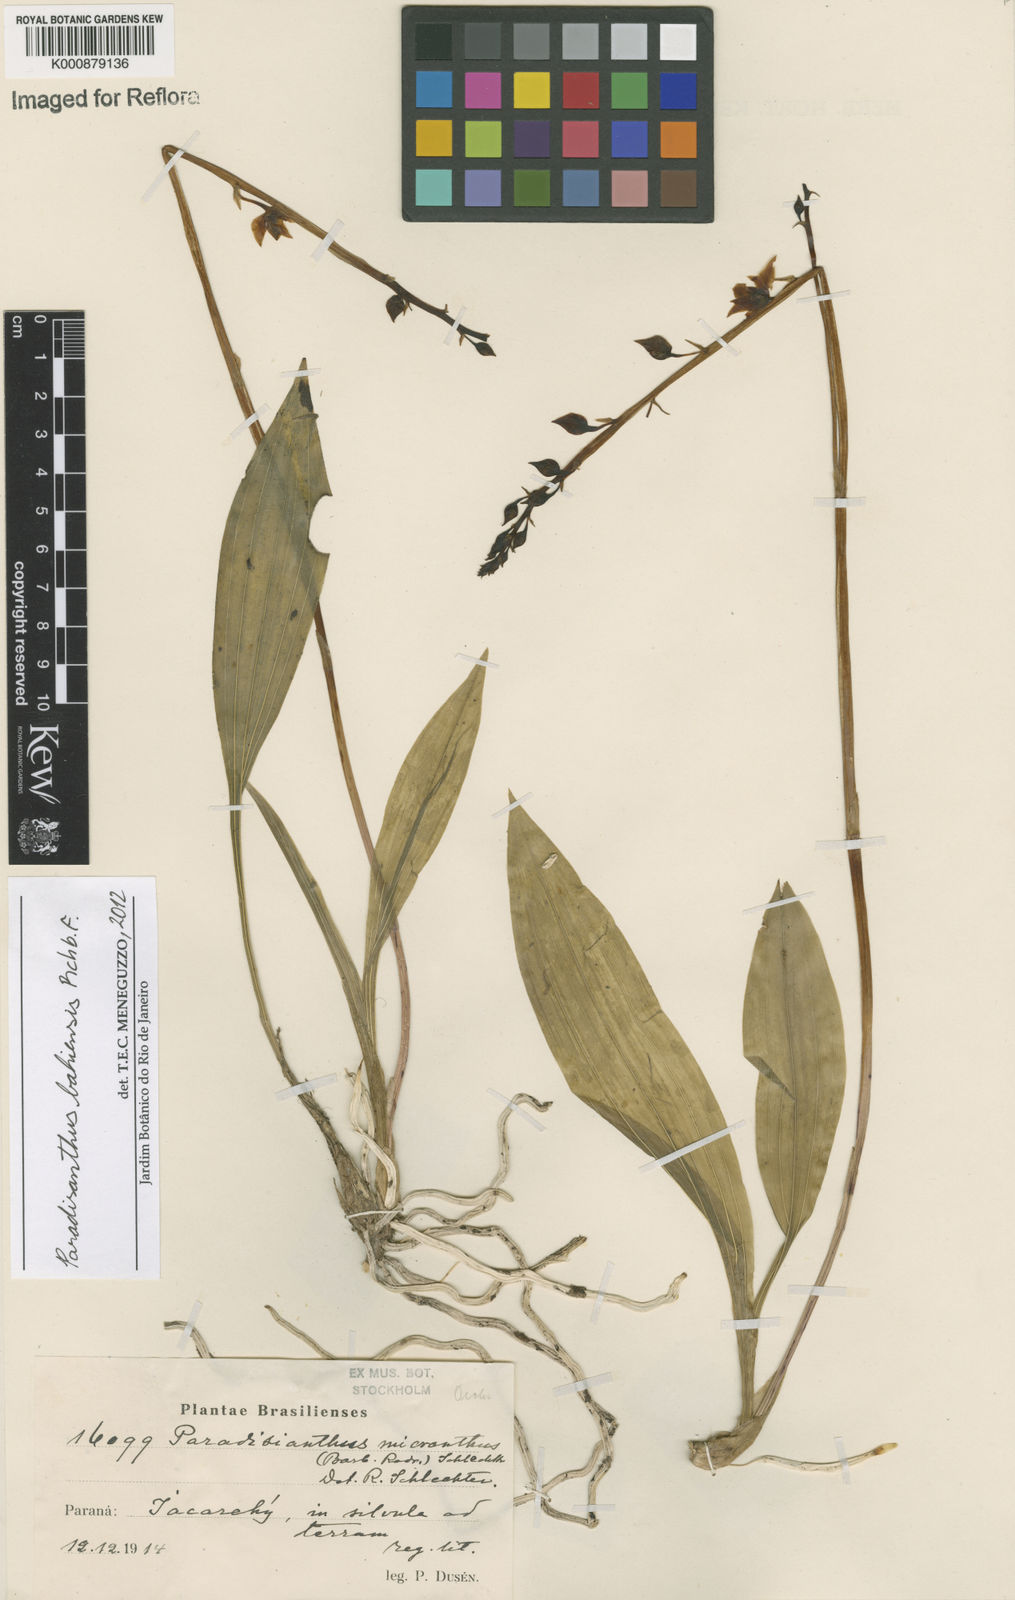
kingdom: Plantae
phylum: Tracheophyta
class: Liliopsida
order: Asparagales
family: Orchidaceae
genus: Paradisanthus
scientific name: Paradisanthus bahiensis
